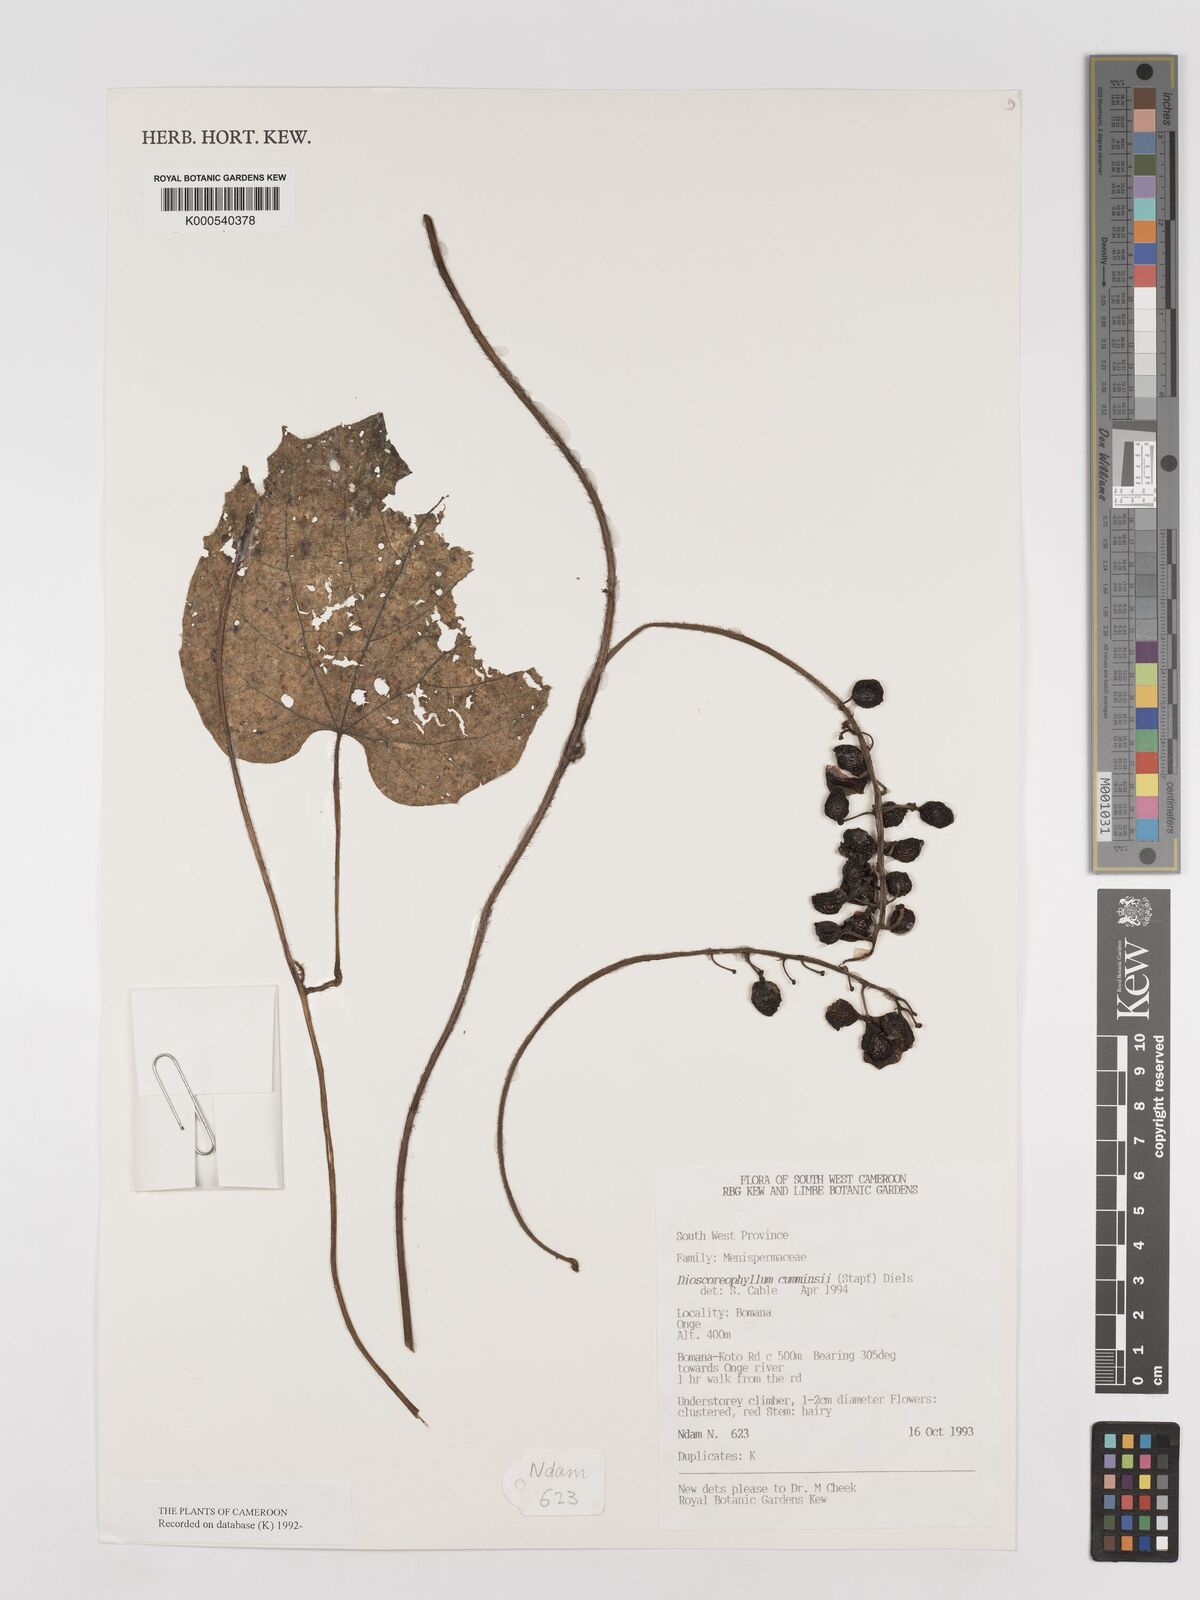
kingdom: Plantae
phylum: Tracheophyta
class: Magnoliopsida
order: Ranunculales
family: Menispermaceae
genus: Dioscoreophyllum
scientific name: Dioscoreophyllum volkensii
